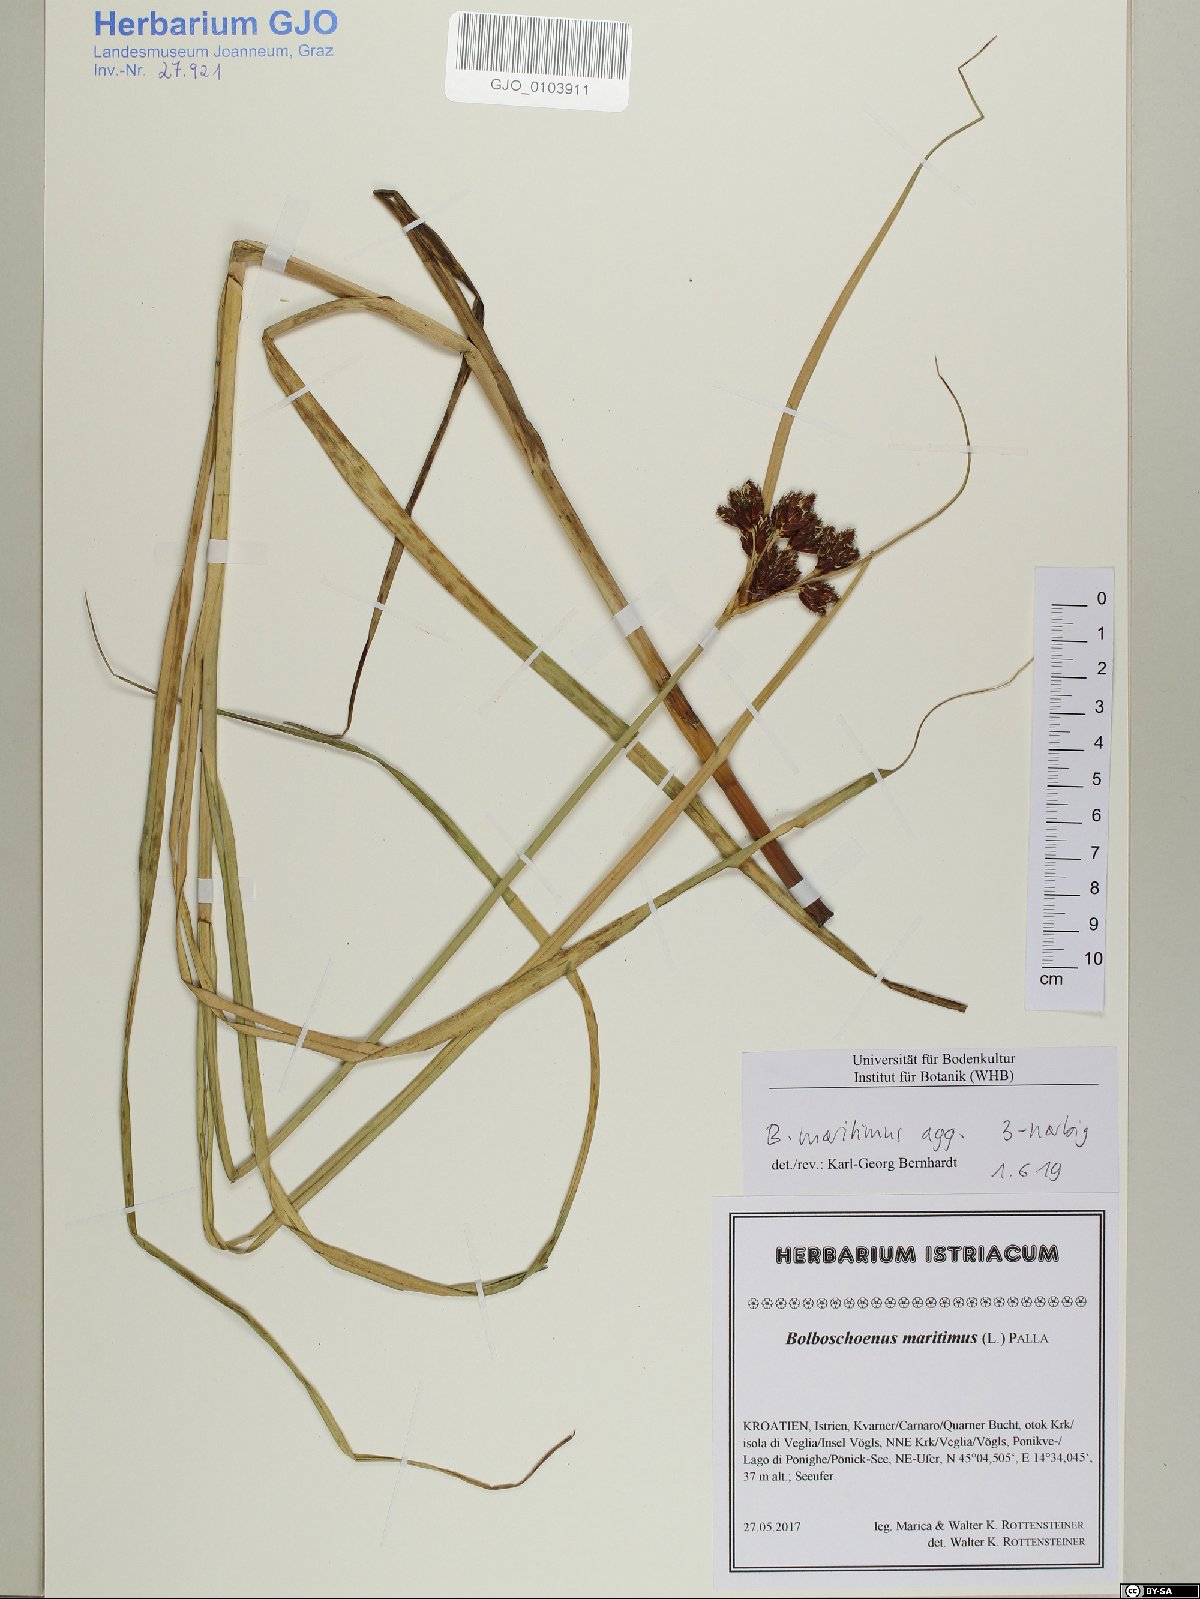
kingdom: Plantae
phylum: Tracheophyta
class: Liliopsida
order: Poales
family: Cyperaceae
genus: Bolboschoenus
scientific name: Bolboschoenus maritimus
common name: Sea club-rush
